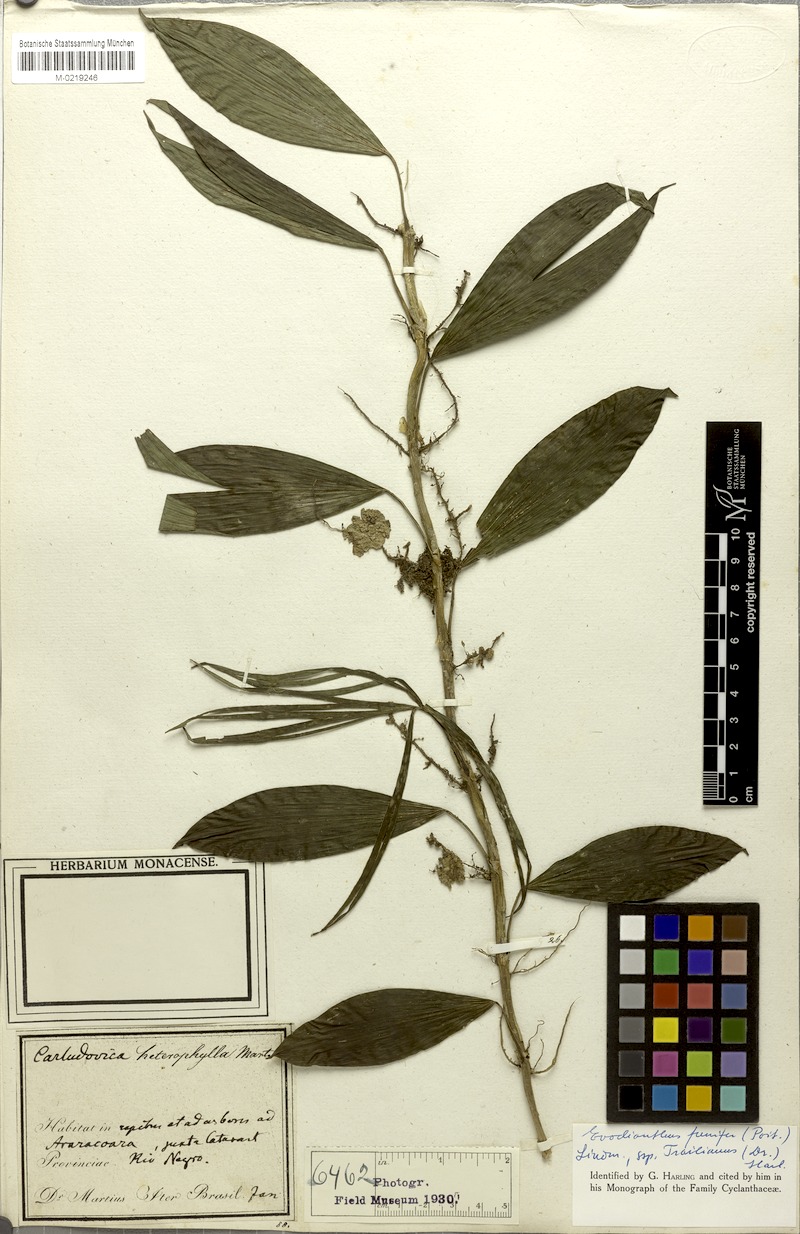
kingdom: Plantae
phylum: Tracheophyta
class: Liliopsida
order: Pandanales
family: Cyclanthaceae
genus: Evodianthus
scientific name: Evodianthus funifer
